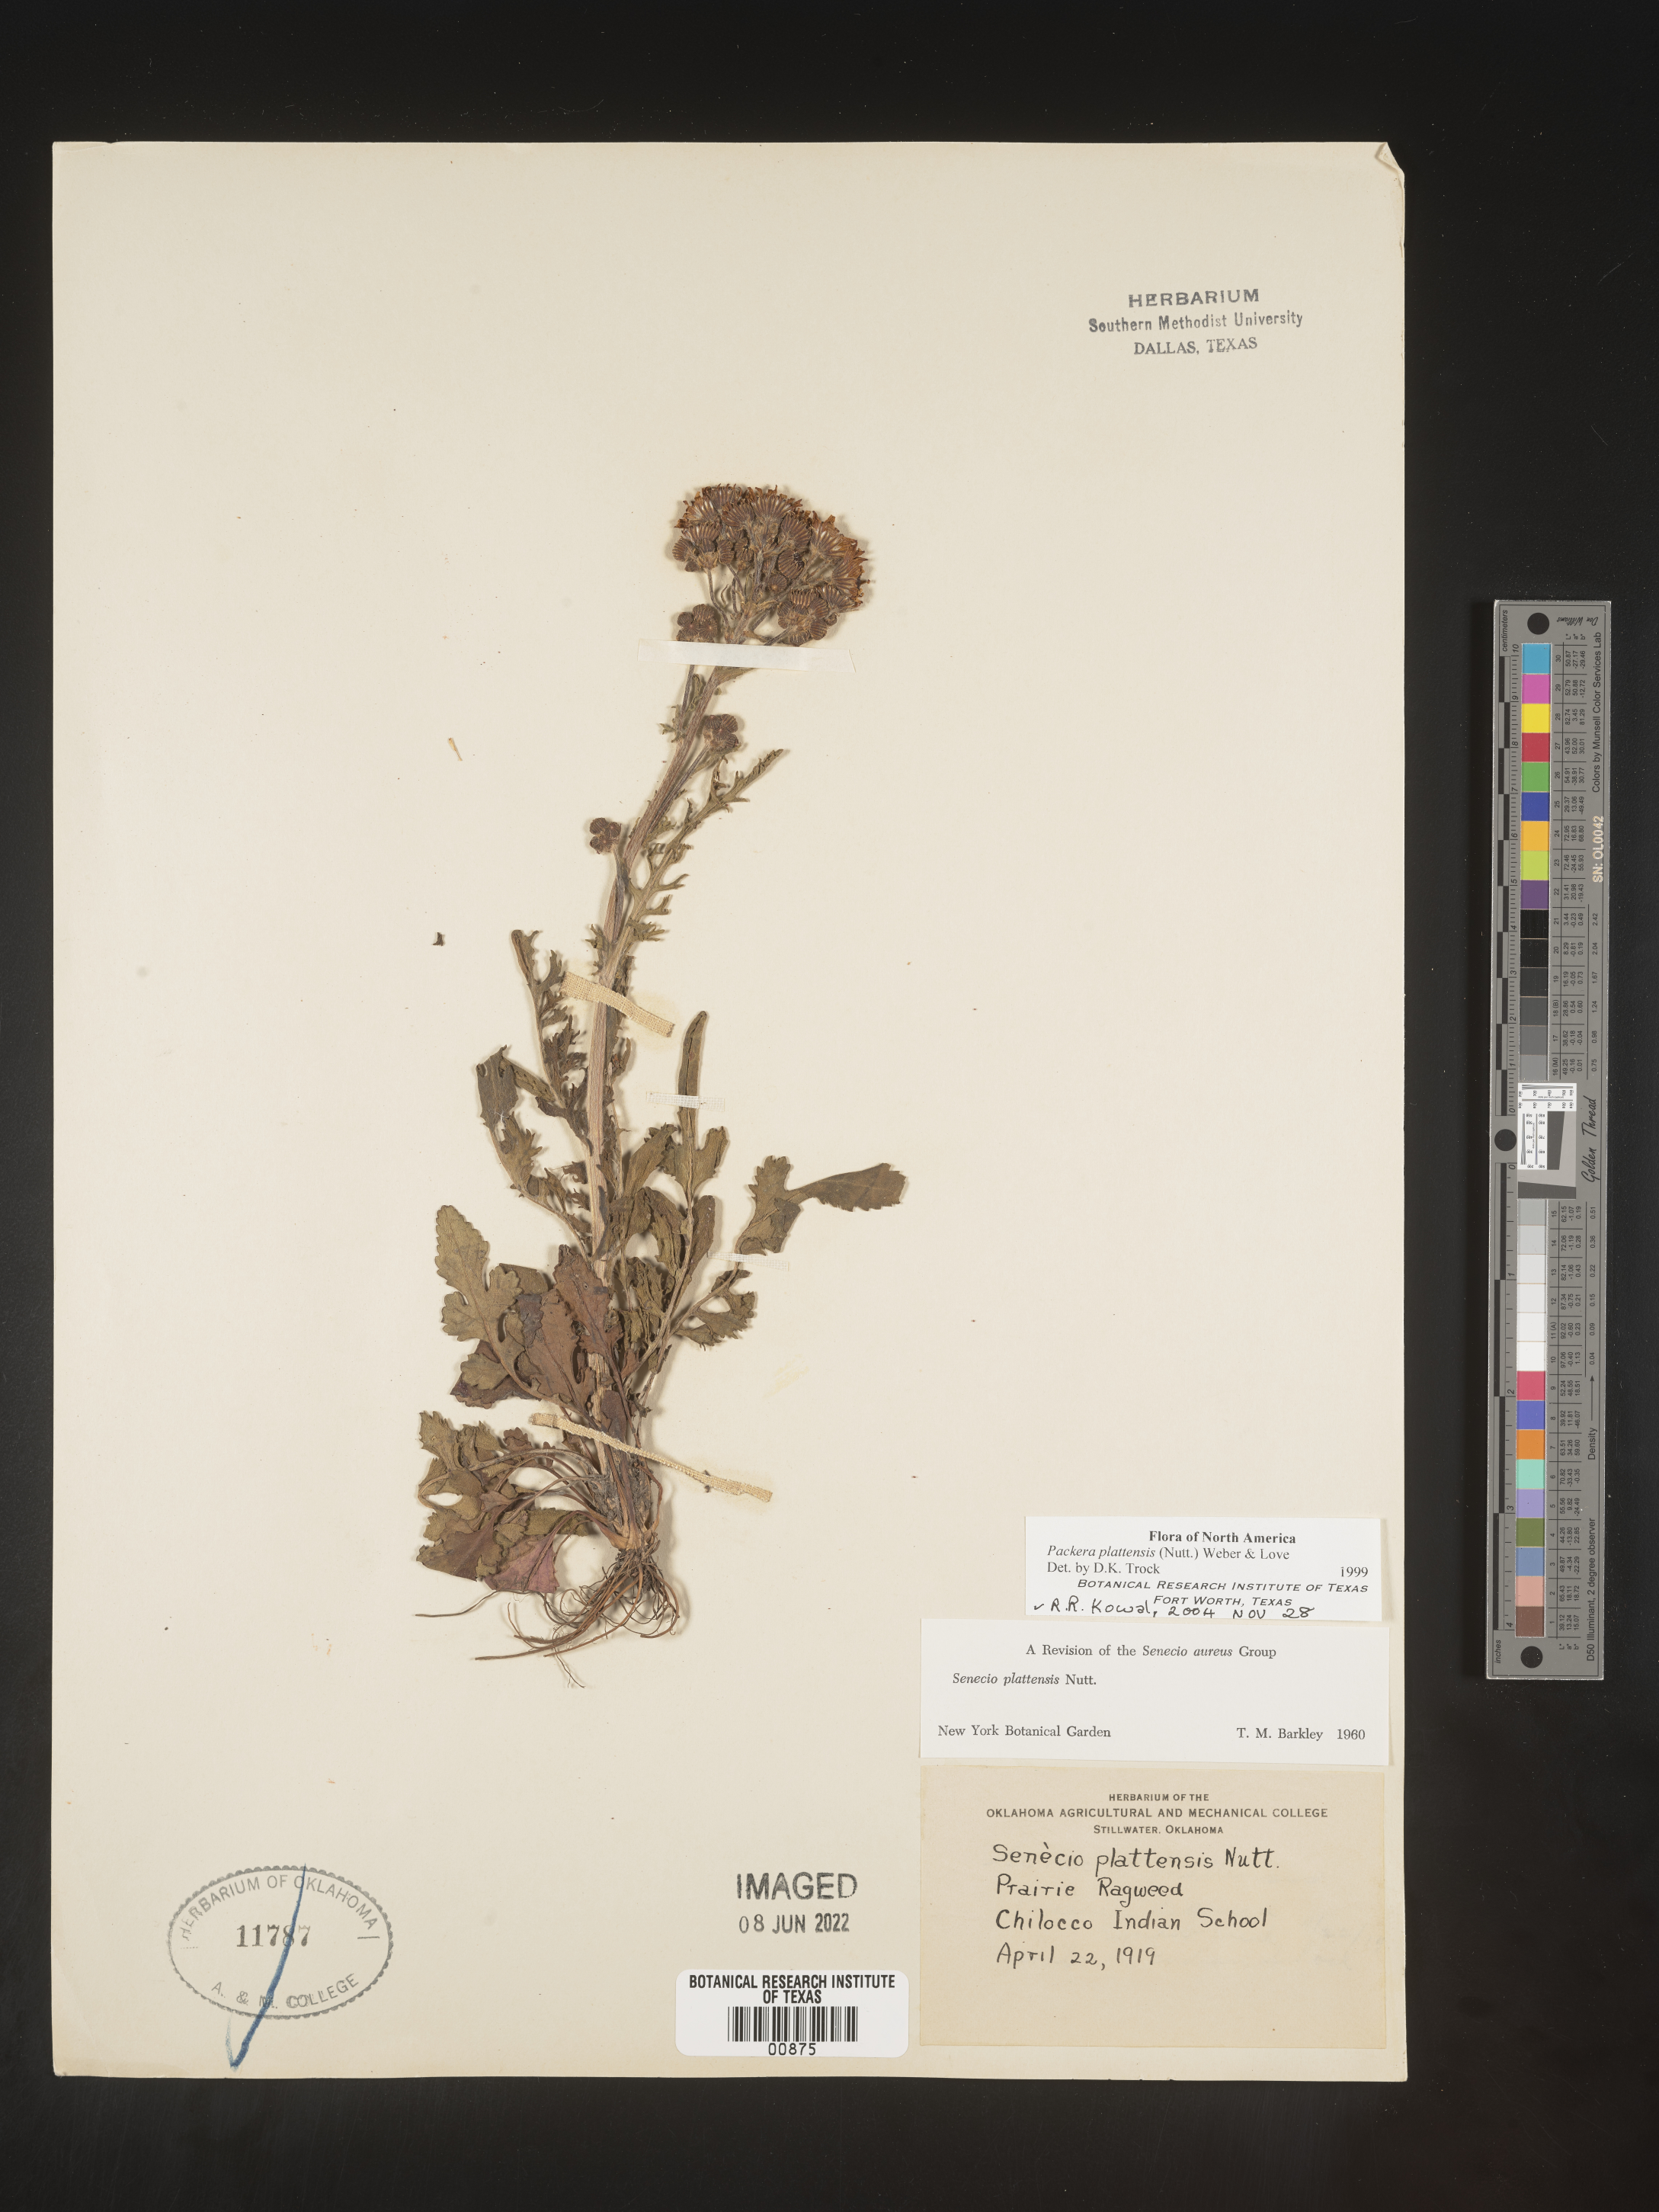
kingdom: Plantae
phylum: Tracheophyta
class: Magnoliopsida
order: Asterales
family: Asteraceae
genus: Packera
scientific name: Packera plattensis
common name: Prairie groundsel
